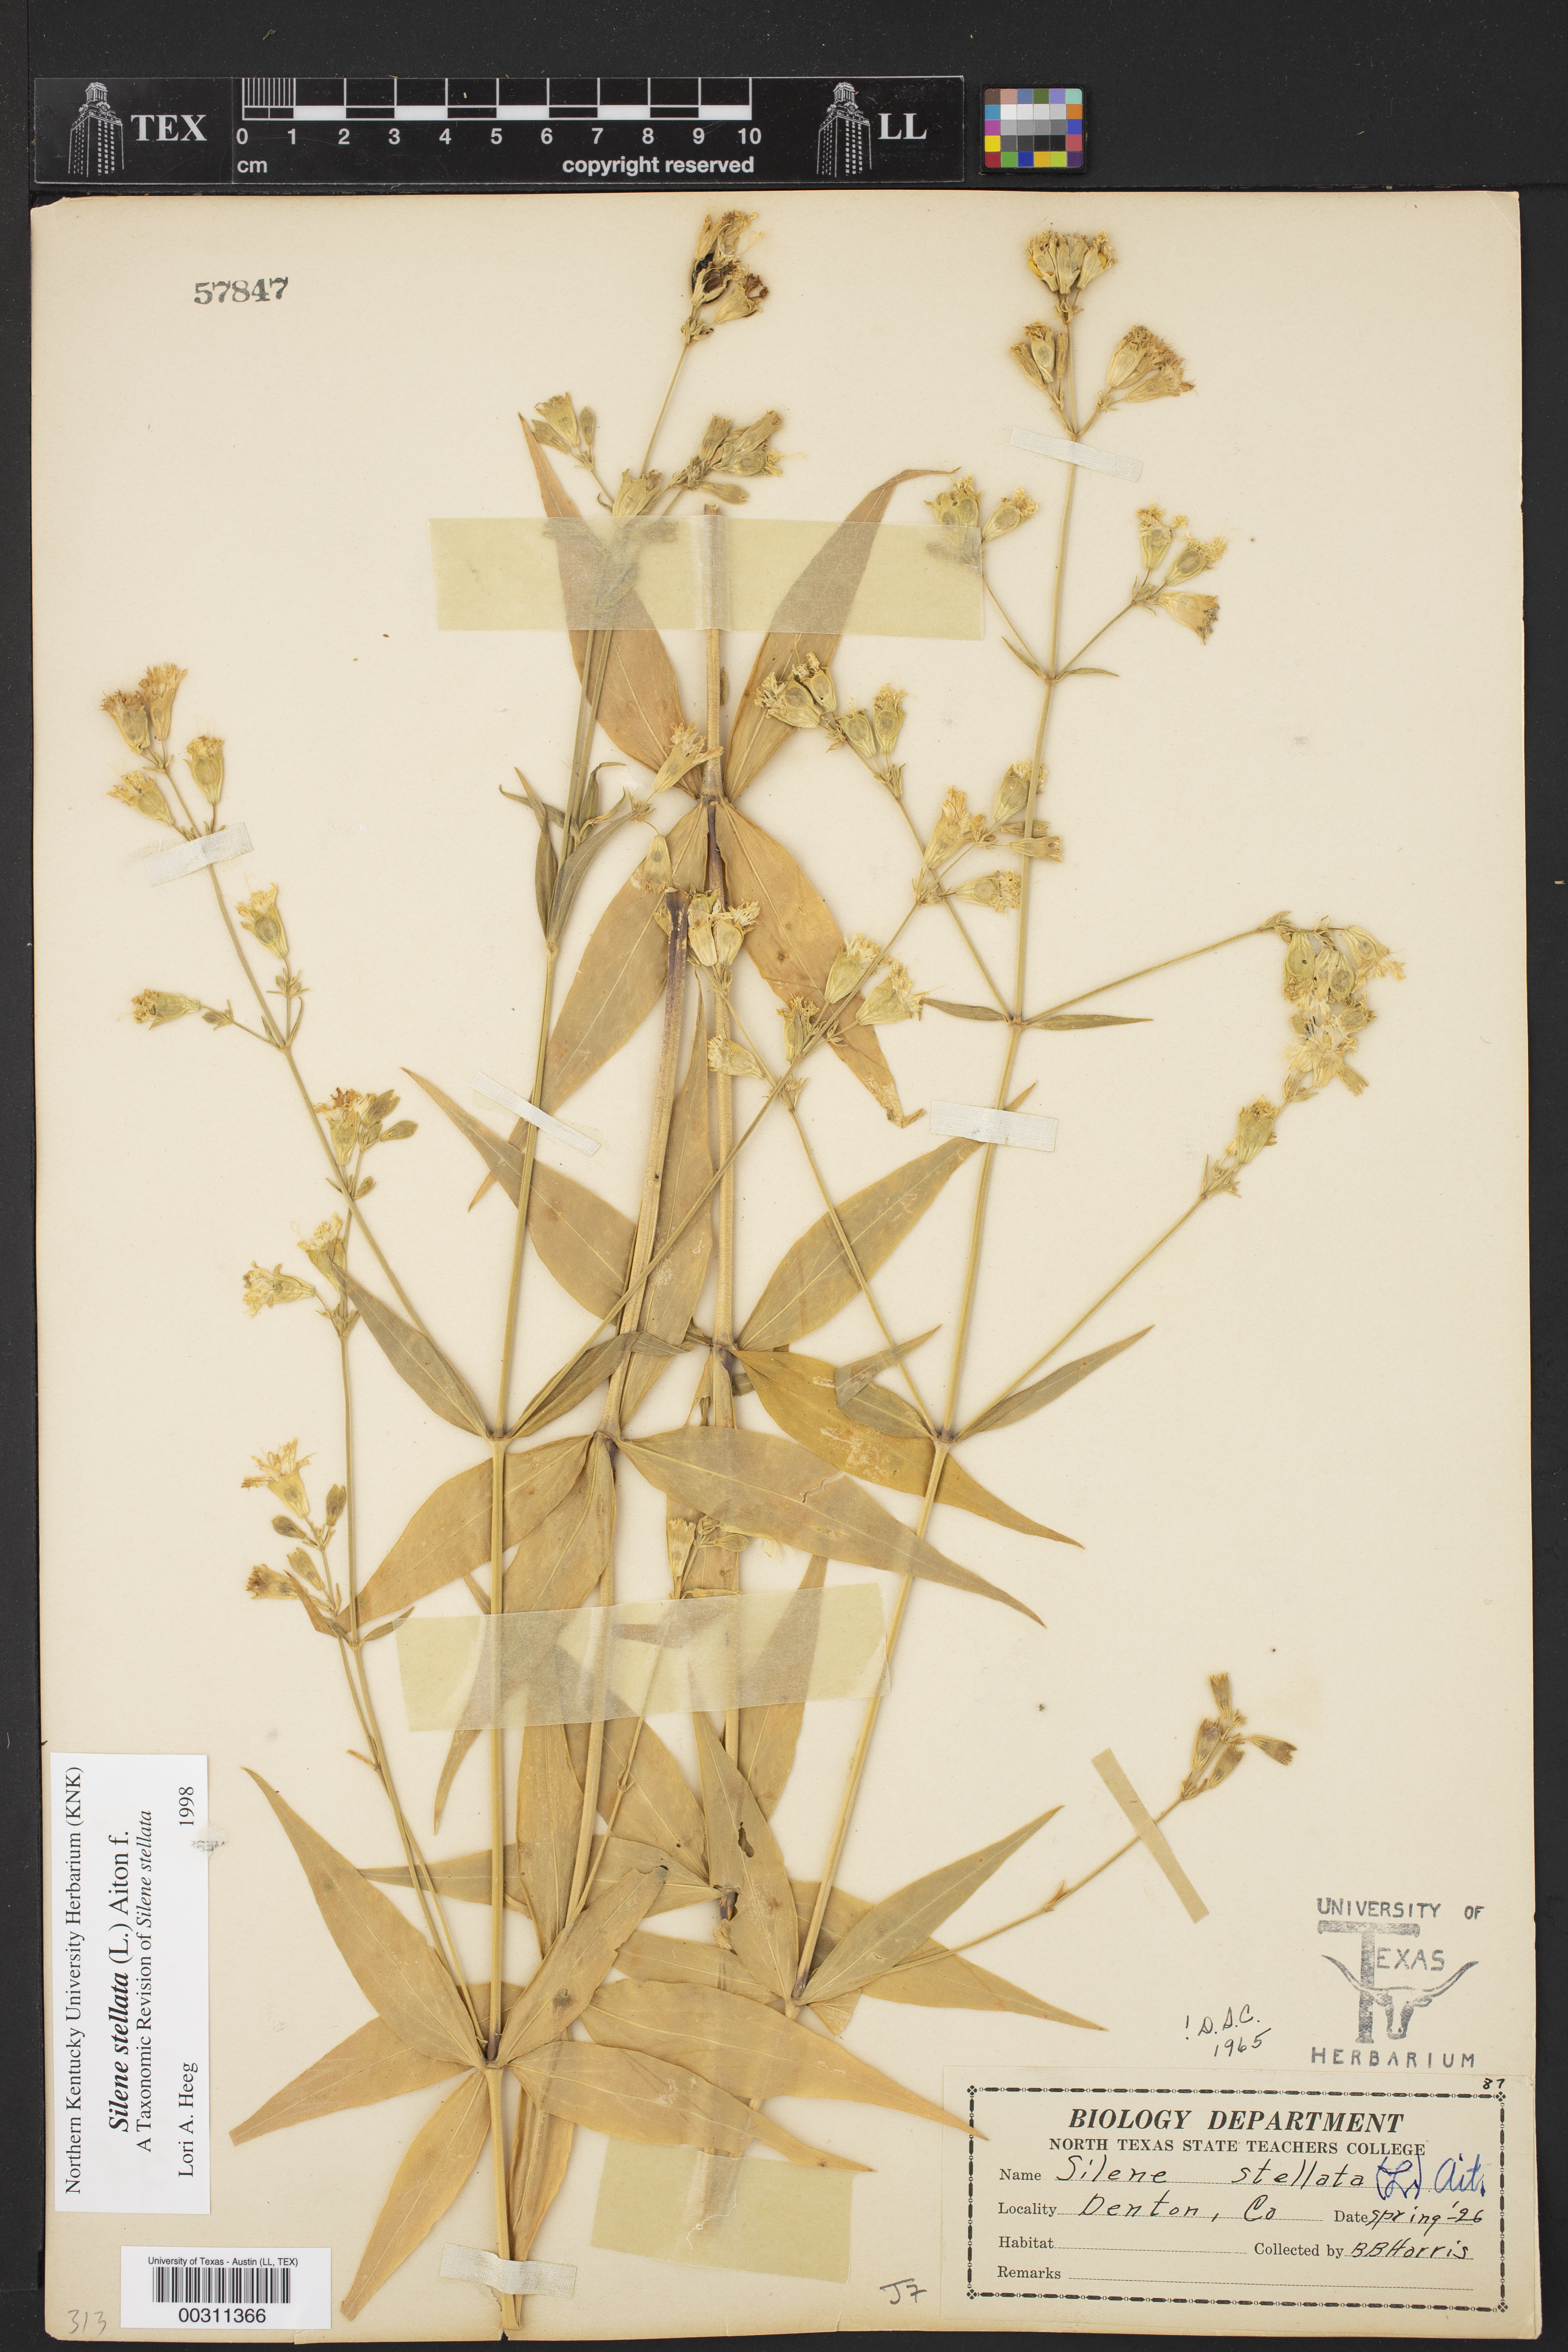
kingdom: Plantae
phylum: Tracheophyta
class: Magnoliopsida
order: Caryophyllales
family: Caryophyllaceae
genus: Silene
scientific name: Silene stellata
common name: Starry campion
